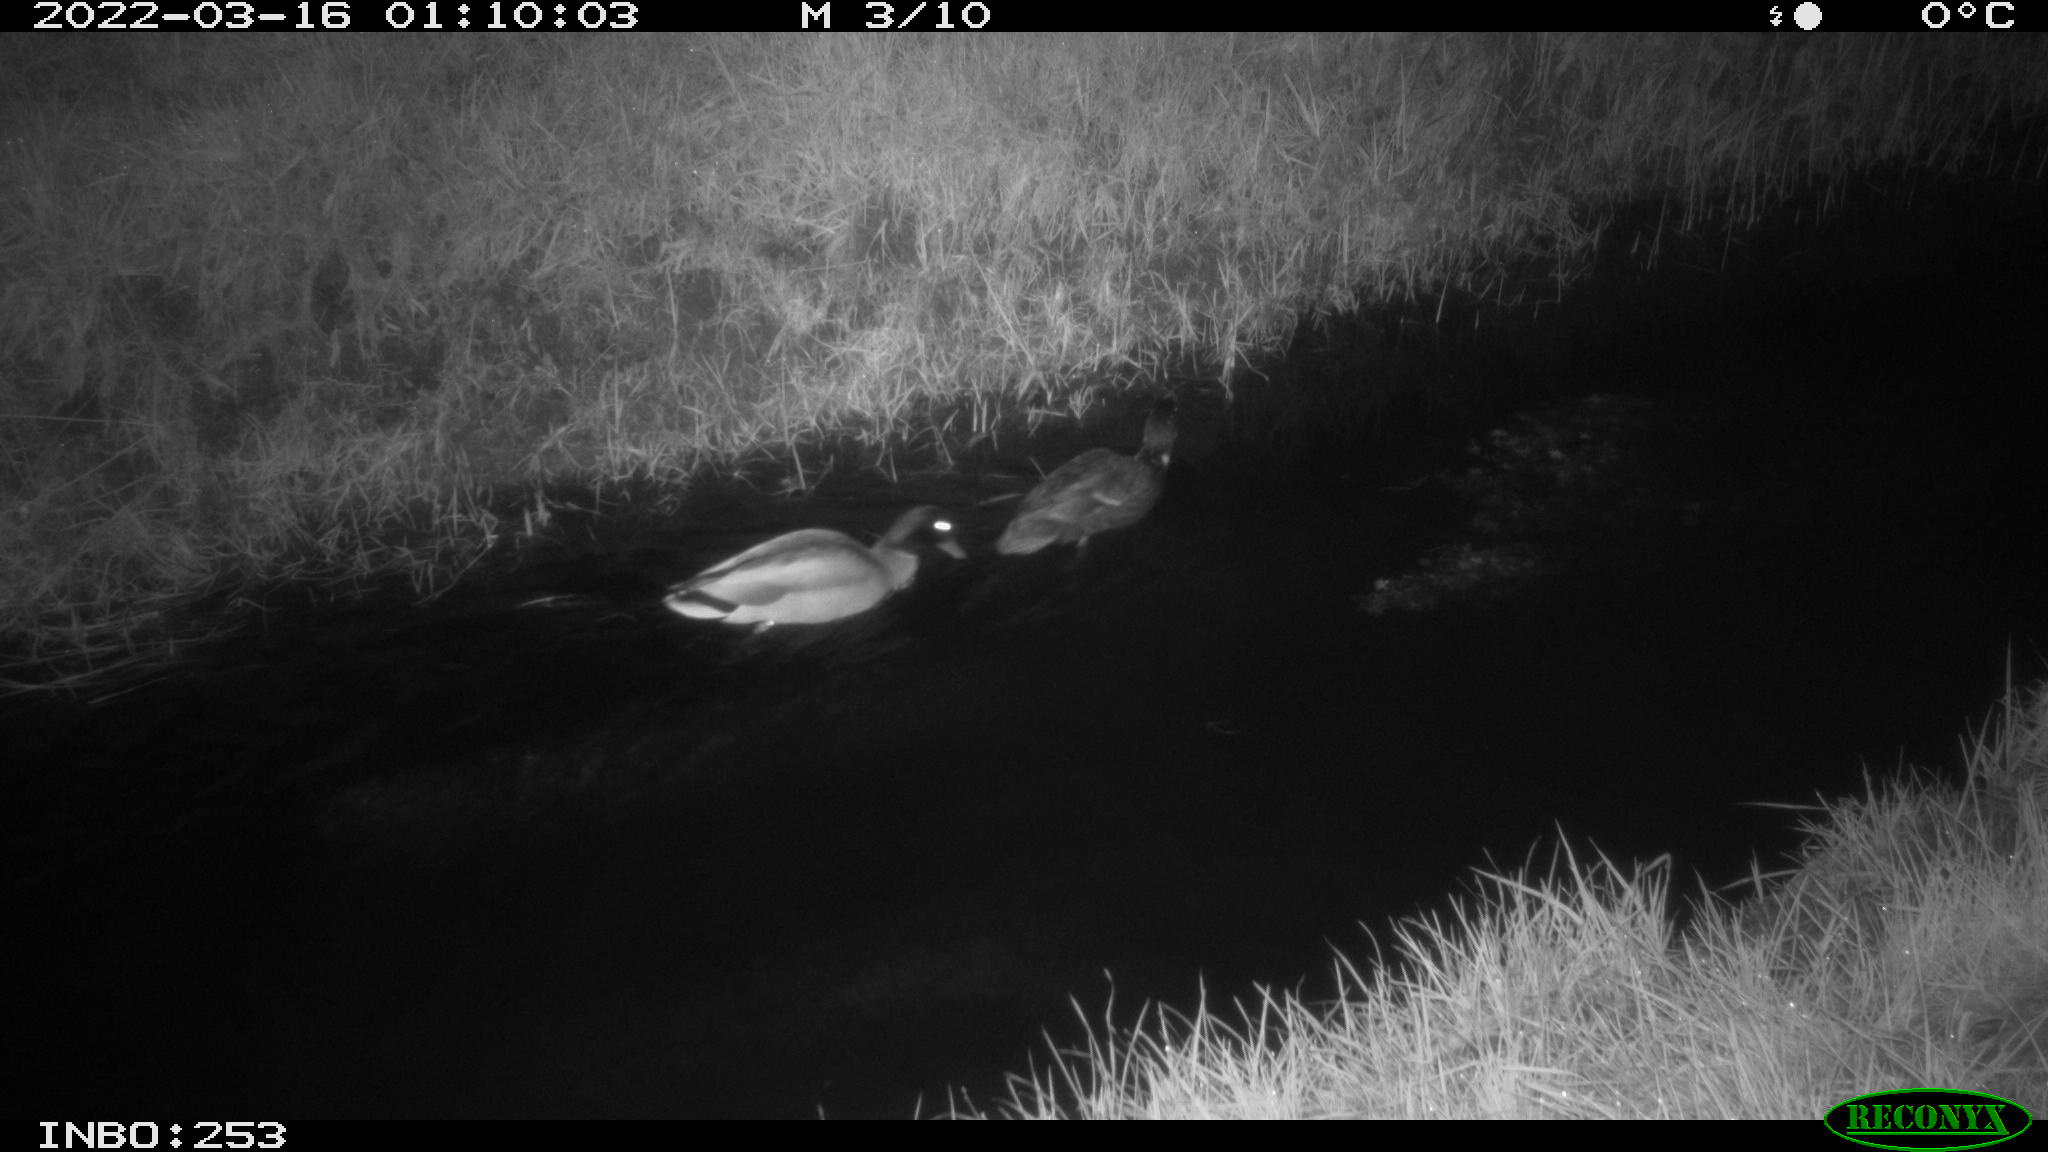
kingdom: Animalia
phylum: Chordata
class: Aves
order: Anseriformes
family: Anatidae
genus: Anas
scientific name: Anas platyrhynchos
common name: Mallard
